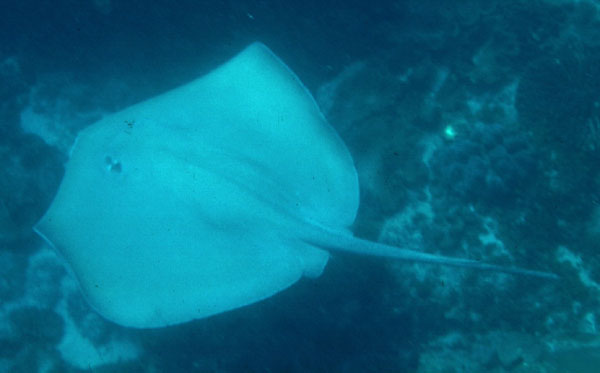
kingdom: Animalia
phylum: Chordata
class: Elasmobranchii
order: Myliobatiformes
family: Dasyatidae
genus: Hemitrygon
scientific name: Hemitrygon fluviorum
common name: Estuary stingray
